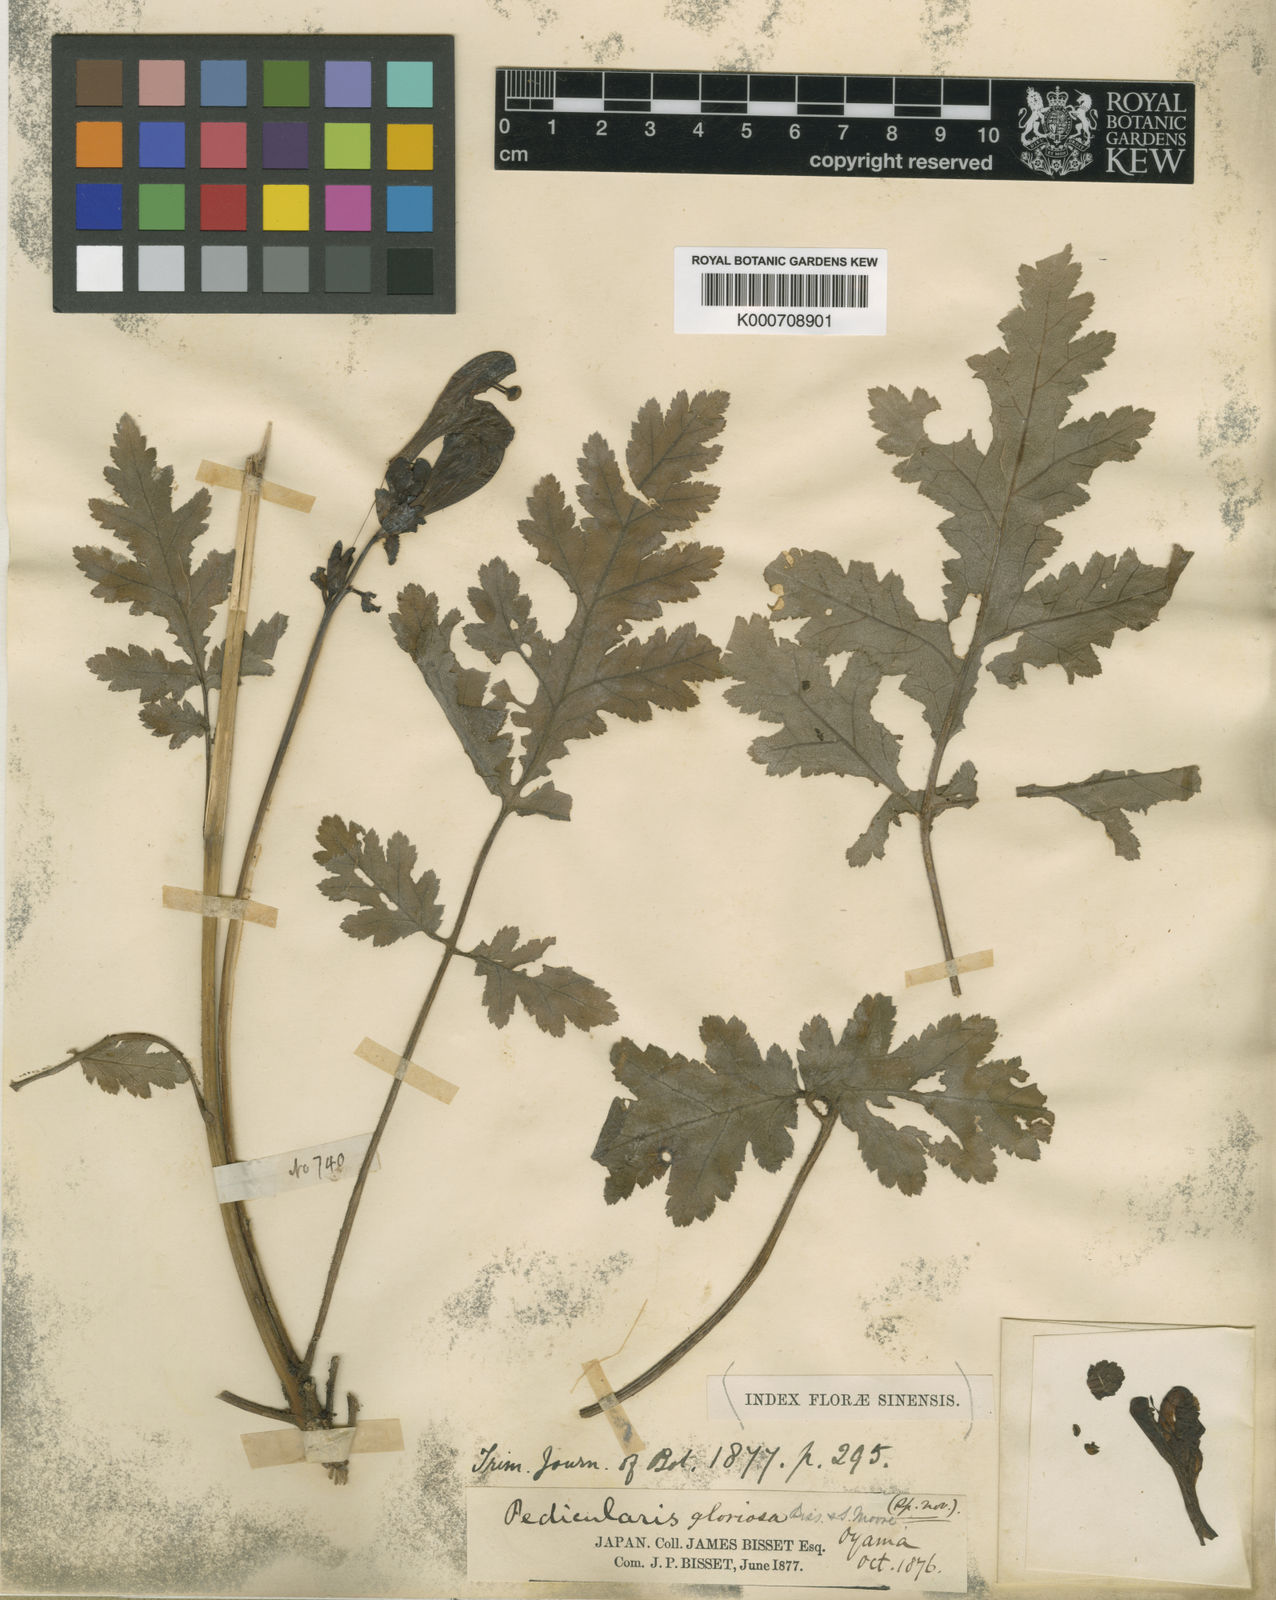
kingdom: Plantae
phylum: Tracheophyta
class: Magnoliopsida
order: Lamiales
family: Orobanchaceae
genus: Pedicularis
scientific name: Pedicularis gloriosa
